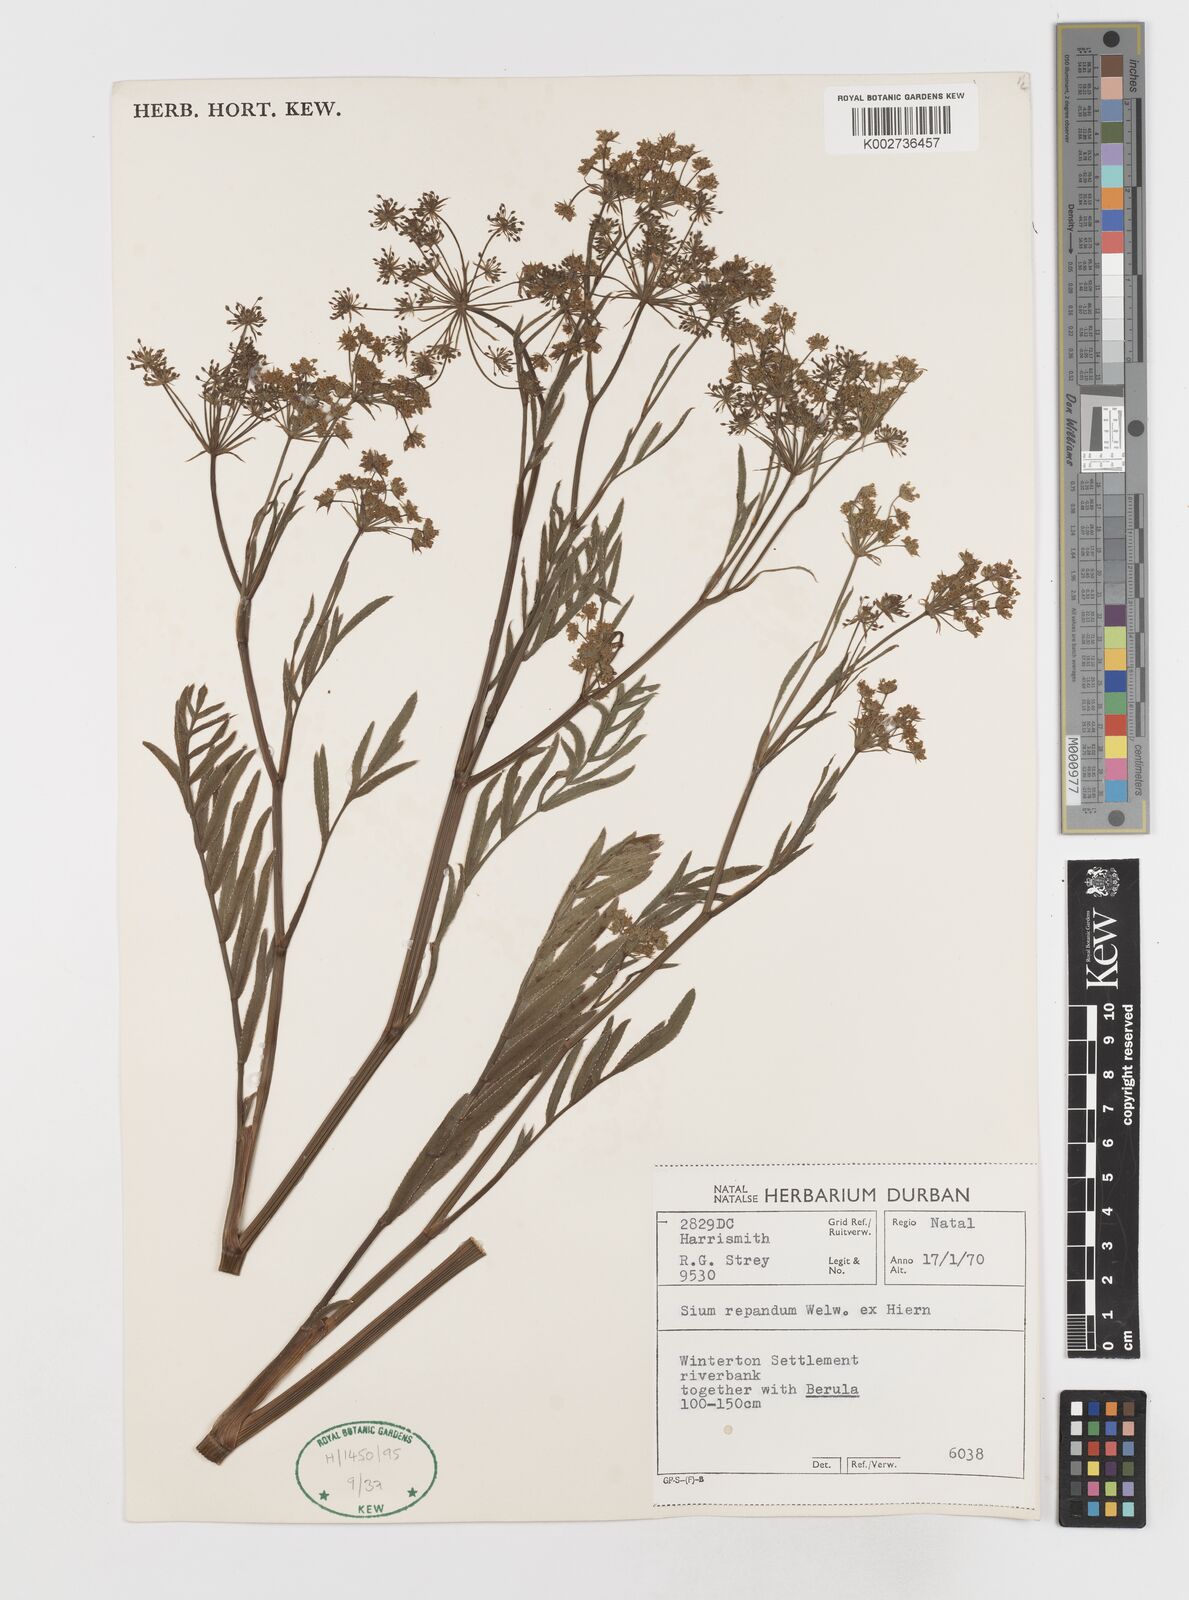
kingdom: Plantae
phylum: Tracheophyta
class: Magnoliopsida
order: Apiales
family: Apiaceae
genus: Berula
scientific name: Berula repanda
